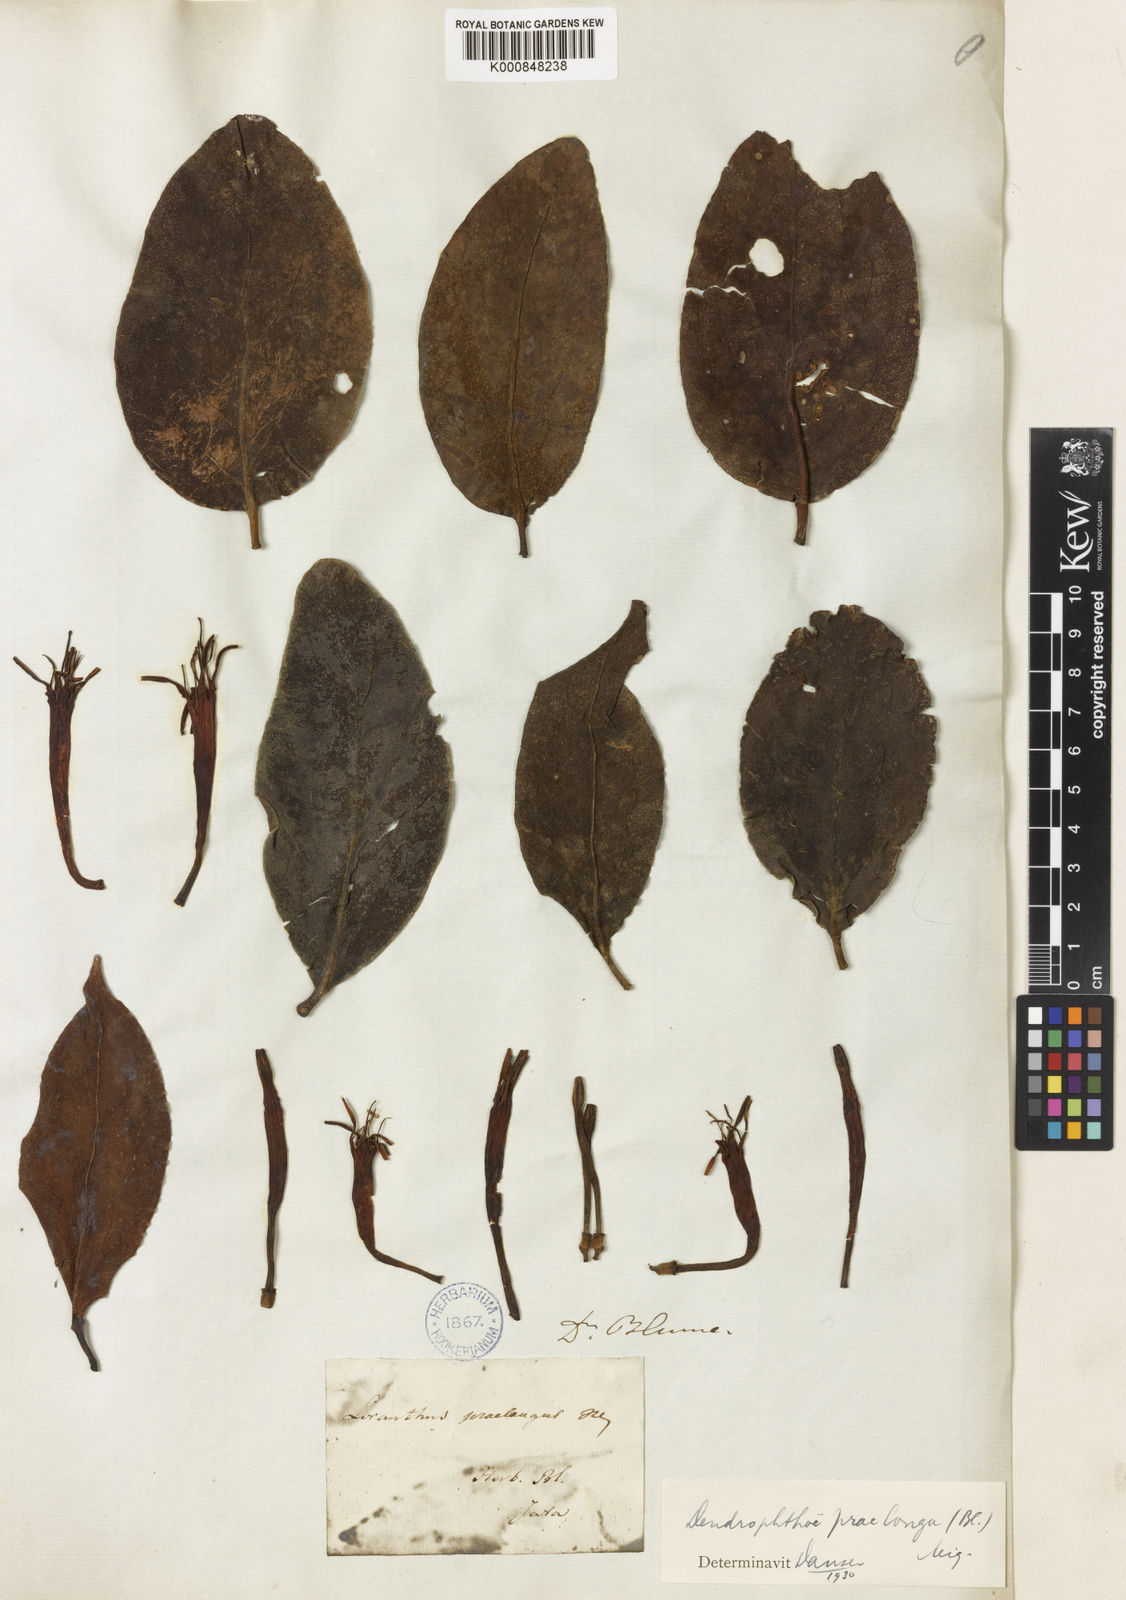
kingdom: Plantae
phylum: Tracheophyta
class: Magnoliopsida
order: Santalales
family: Loranthaceae
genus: Dendrophthoe
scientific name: Dendrophthoe praelonga
